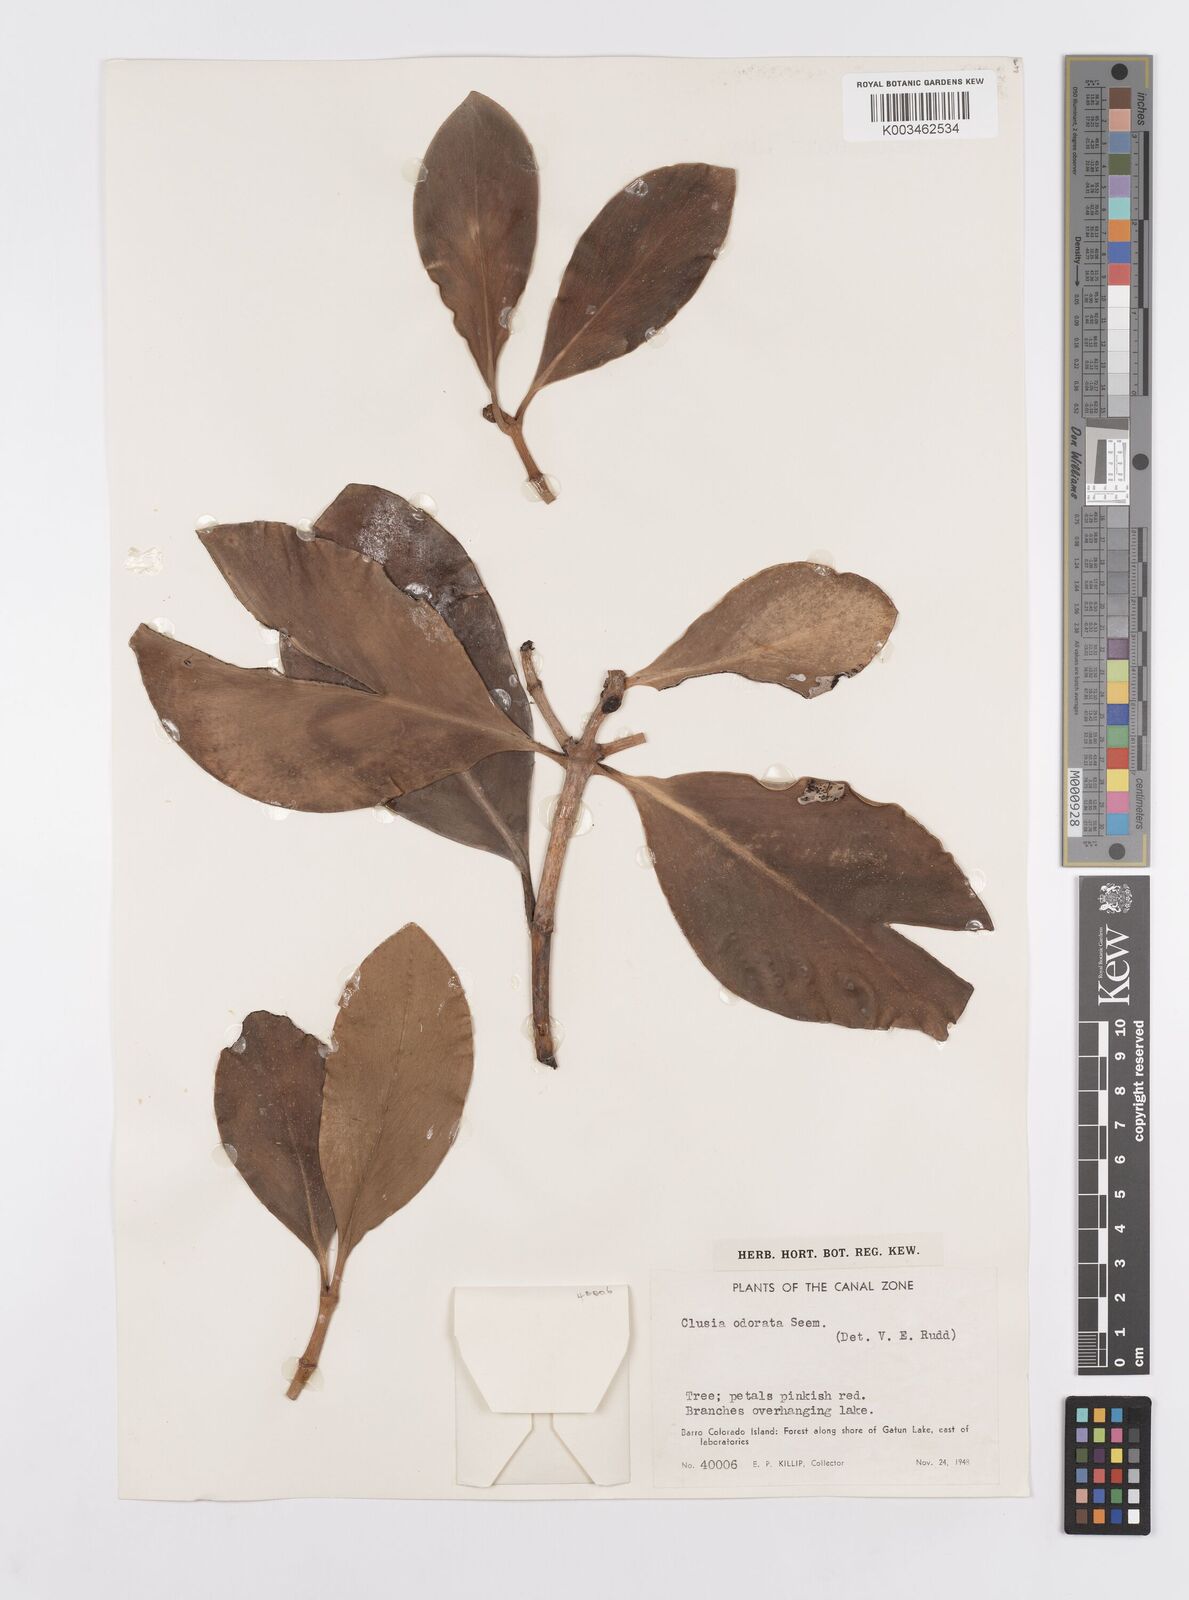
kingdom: Plantae
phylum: Tracheophyta
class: Magnoliopsida
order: Malpighiales
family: Clusiaceae
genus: Clusia
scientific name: Clusia minor
